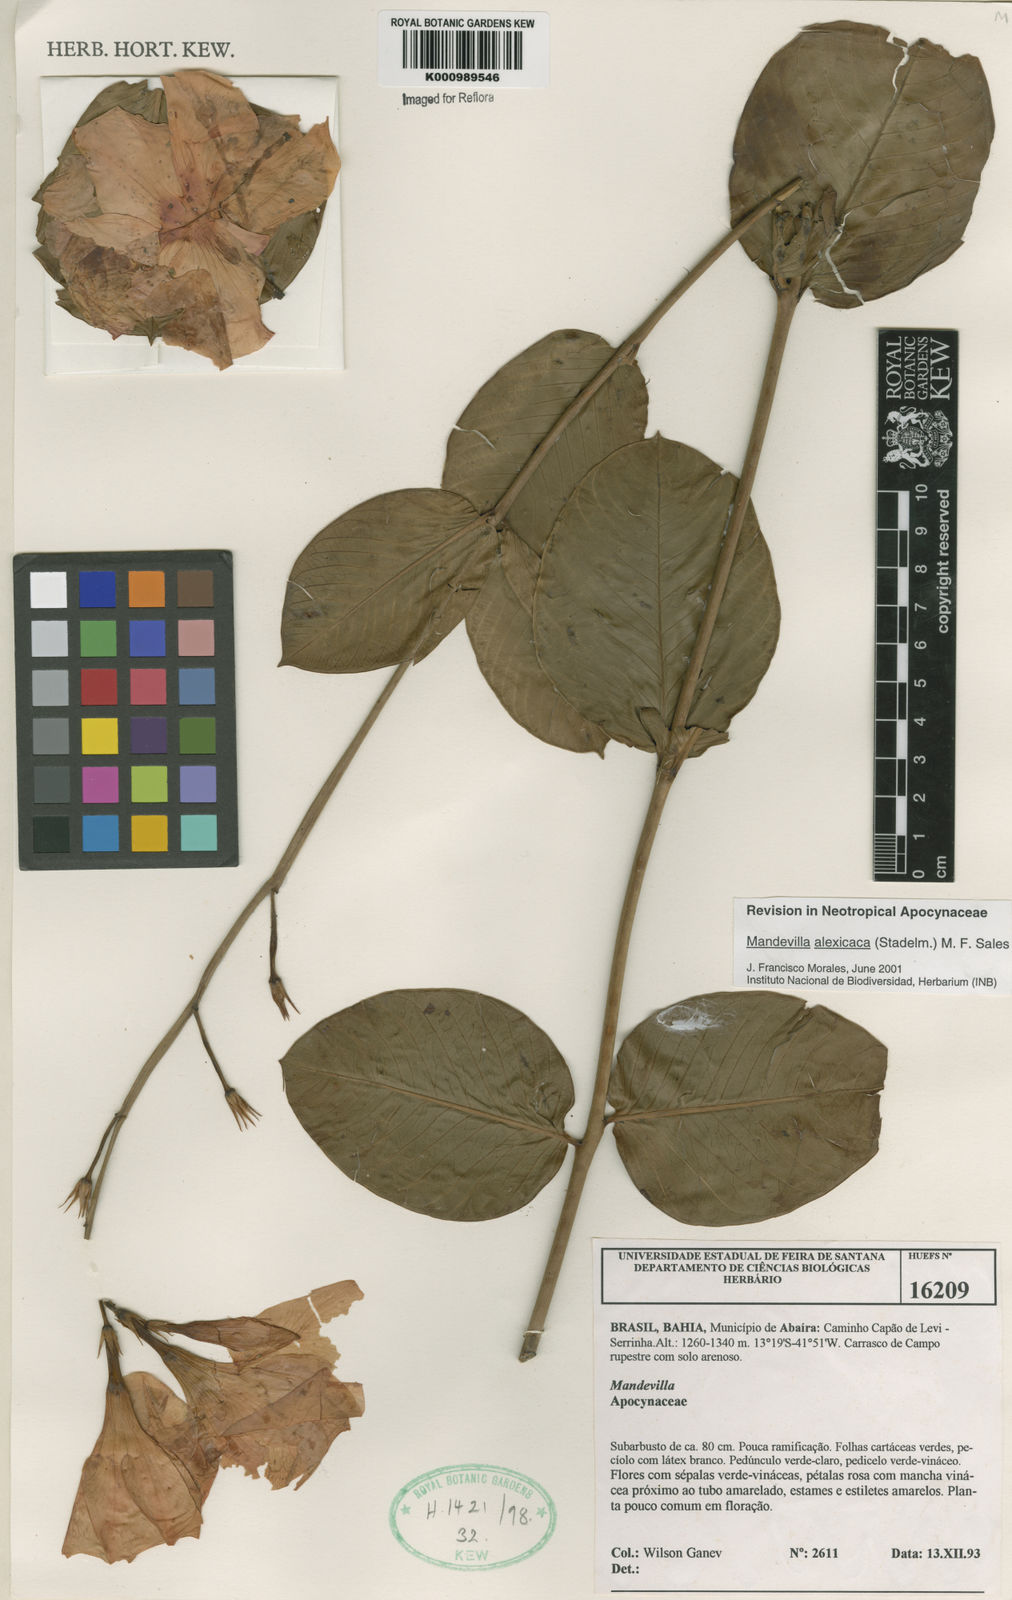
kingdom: Plantae
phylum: Tracheophyta
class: Magnoliopsida
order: Gentianales
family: Apocynaceae
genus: Mandevilla
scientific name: Mandevilla
